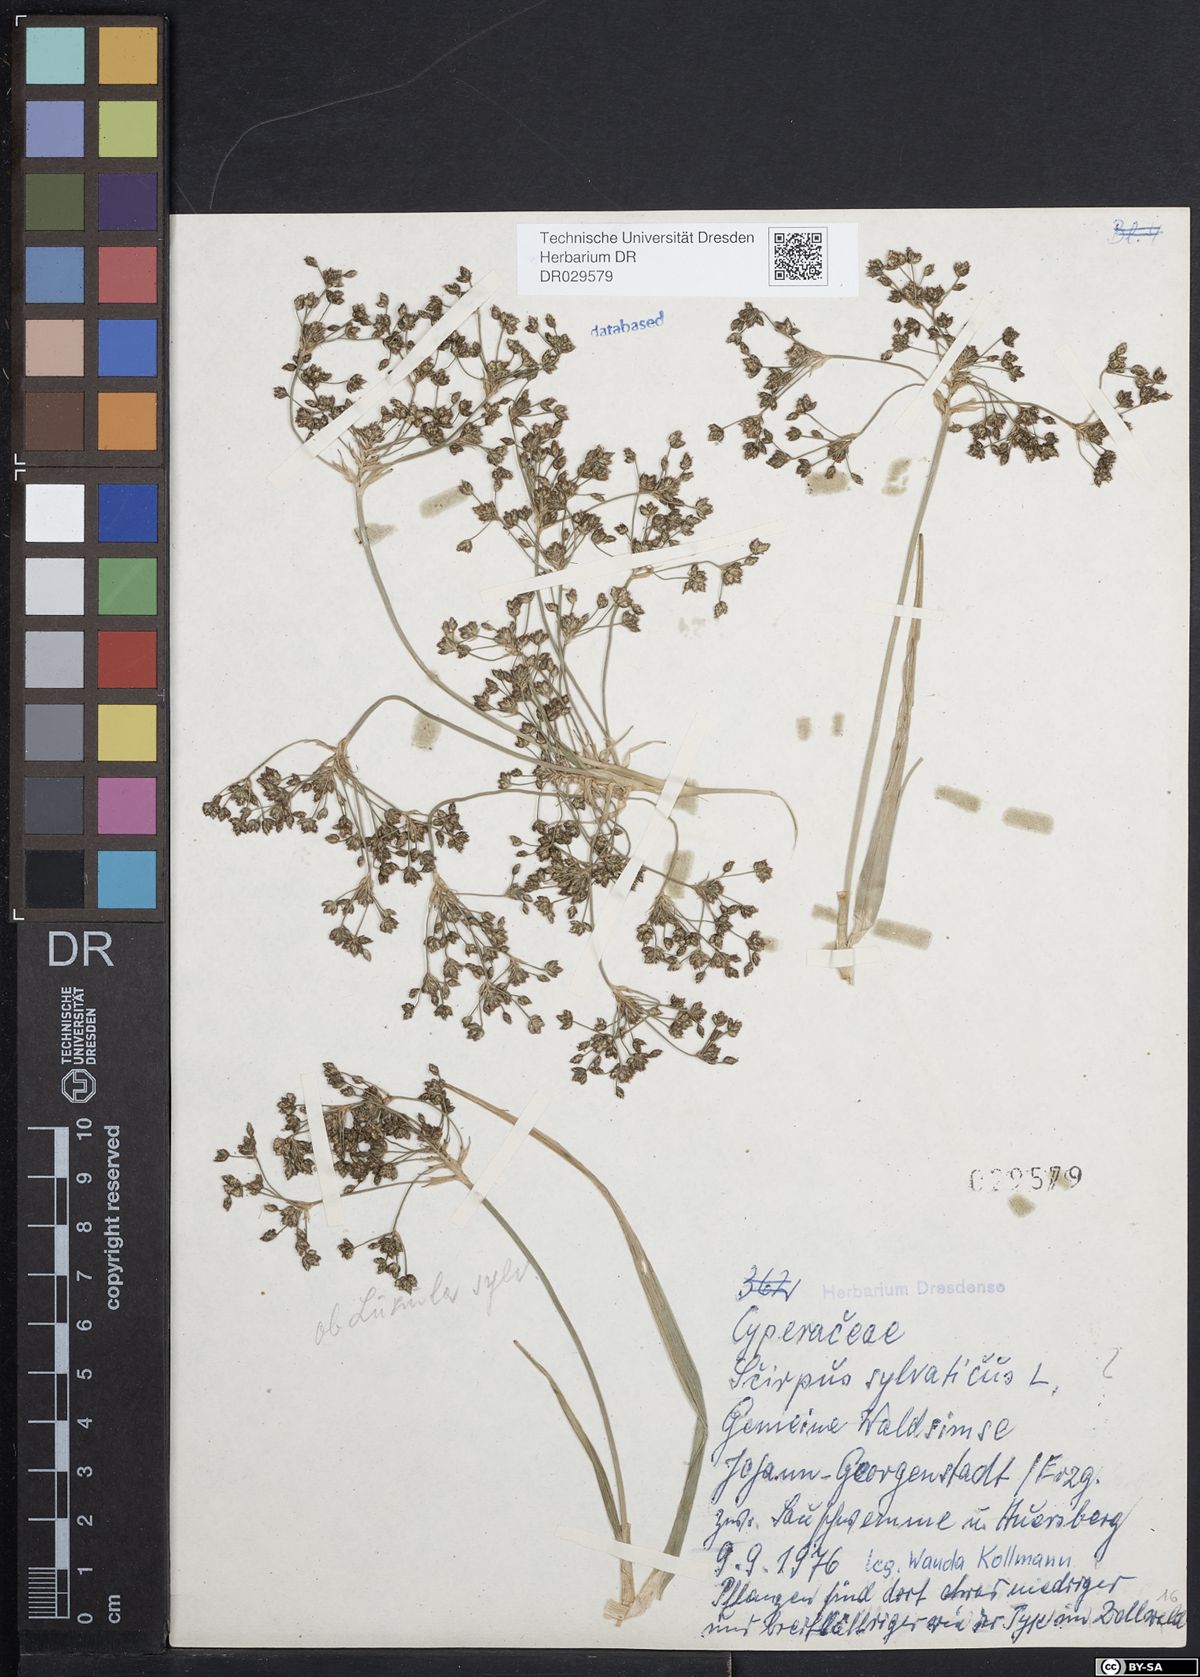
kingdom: Plantae
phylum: Tracheophyta
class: Liliopsida
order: Poales
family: Cyperaceae
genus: Scirpus
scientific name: Scirpus sylvaticus
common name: Wood club-rush
